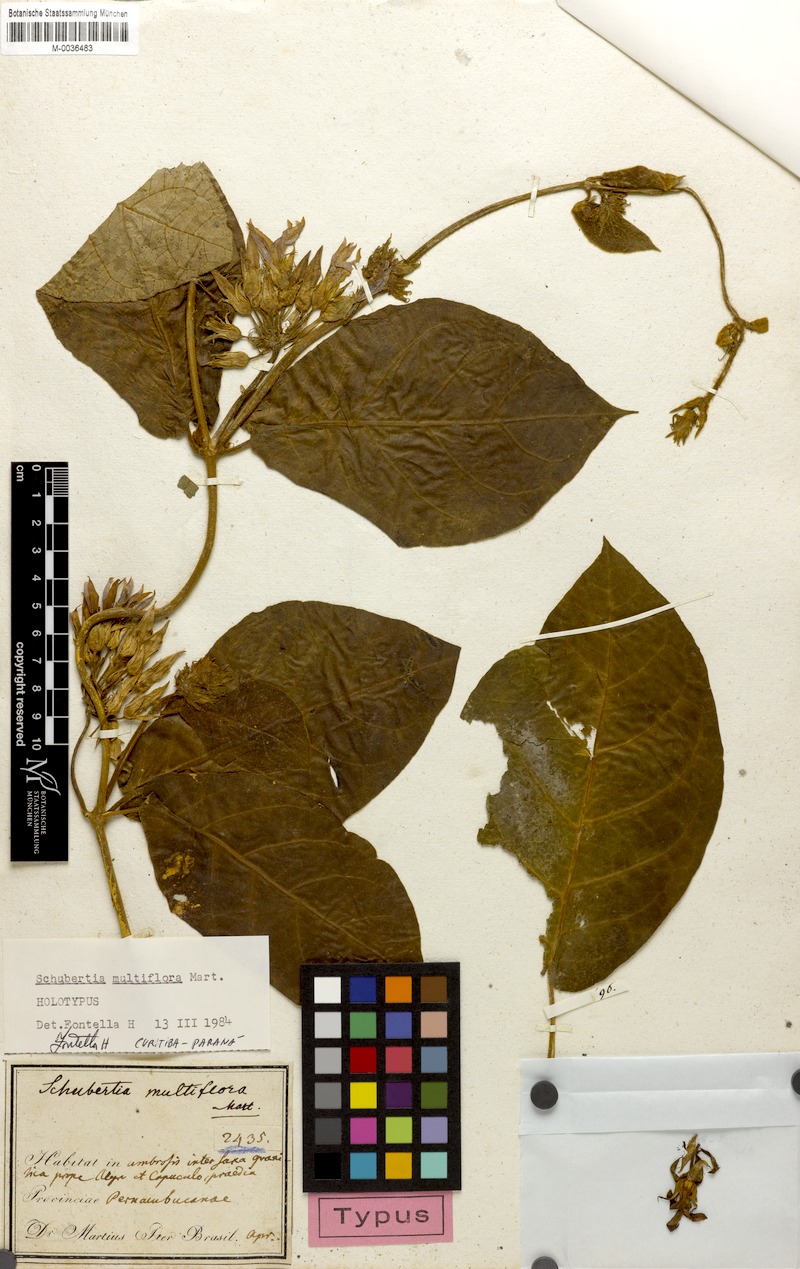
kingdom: Plantae
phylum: Tracheophyta
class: Magnoliopsida
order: Gentianales
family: Apocynaceae
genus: Schubertia
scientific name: Schubertia multiflora
